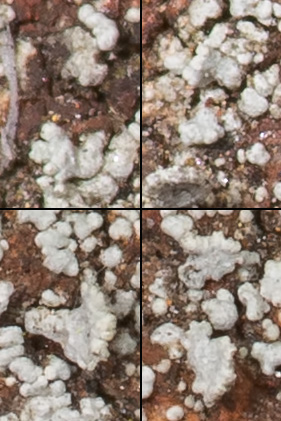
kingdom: Fungi
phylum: Ascomycota
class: Lecanoromycetes
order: Lecanorales
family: Stereocaulaceae
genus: Stereocaulon
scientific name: Stereocaulon nanodes
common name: liden korallav
